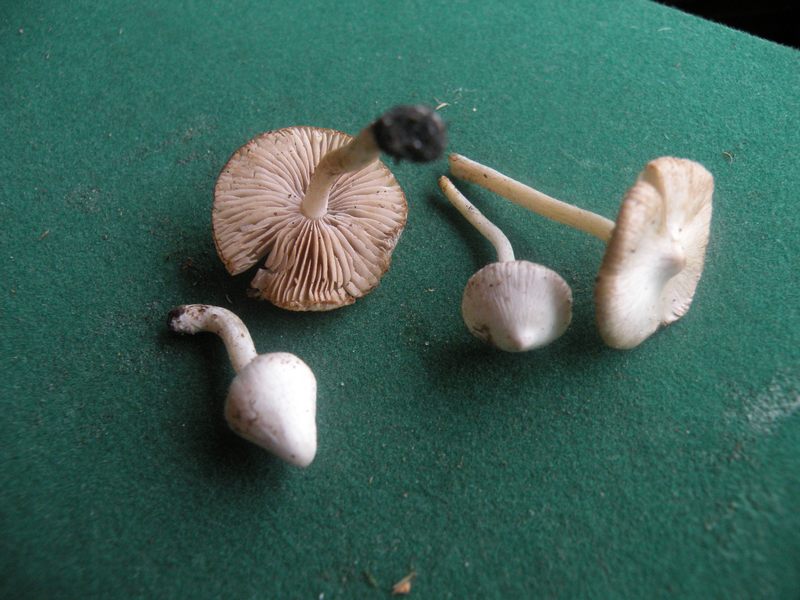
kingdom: Fungi
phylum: Basidiomycota
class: Agaricomycetes
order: Agaricales
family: Inocybaceae
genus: Inocybe
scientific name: Inocybe
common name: almindelig trævlhat
